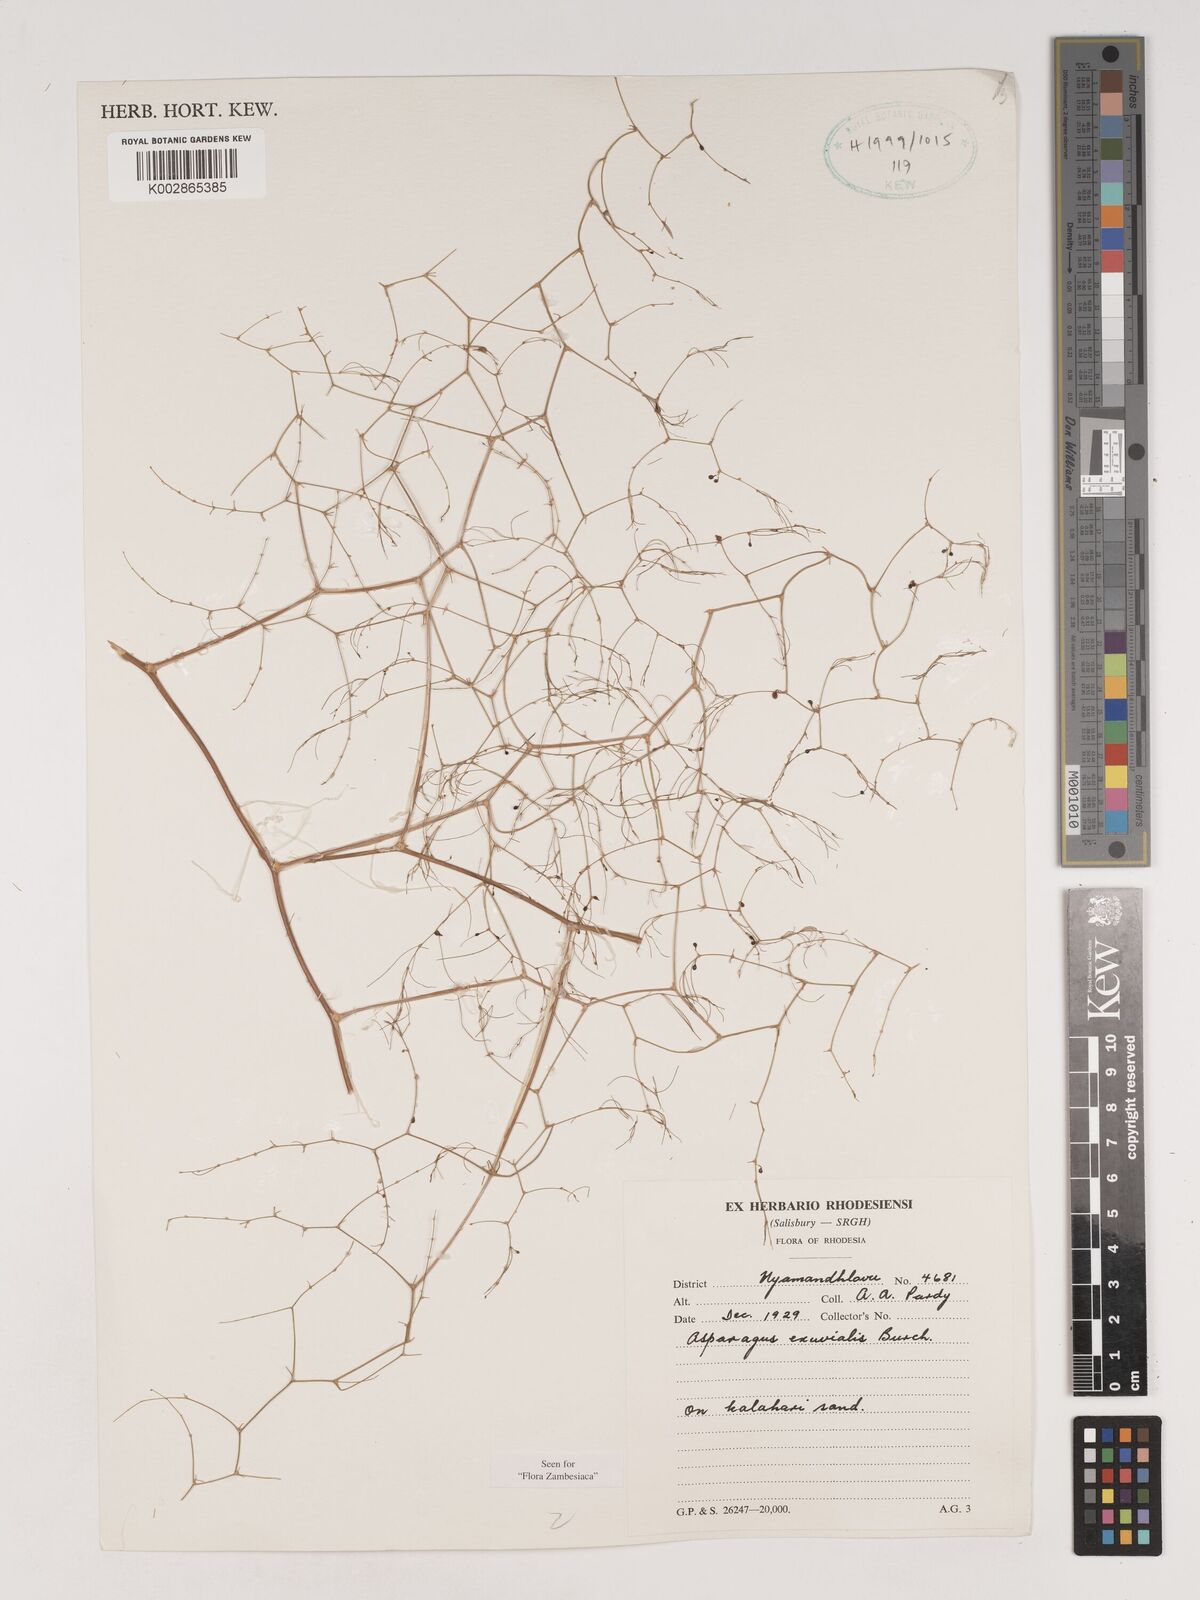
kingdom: Plantae
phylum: Tracheophyta
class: Liliopsida
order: Asparagales
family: Asparagaceae
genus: Asparagus
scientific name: Asparagus exuvialis
